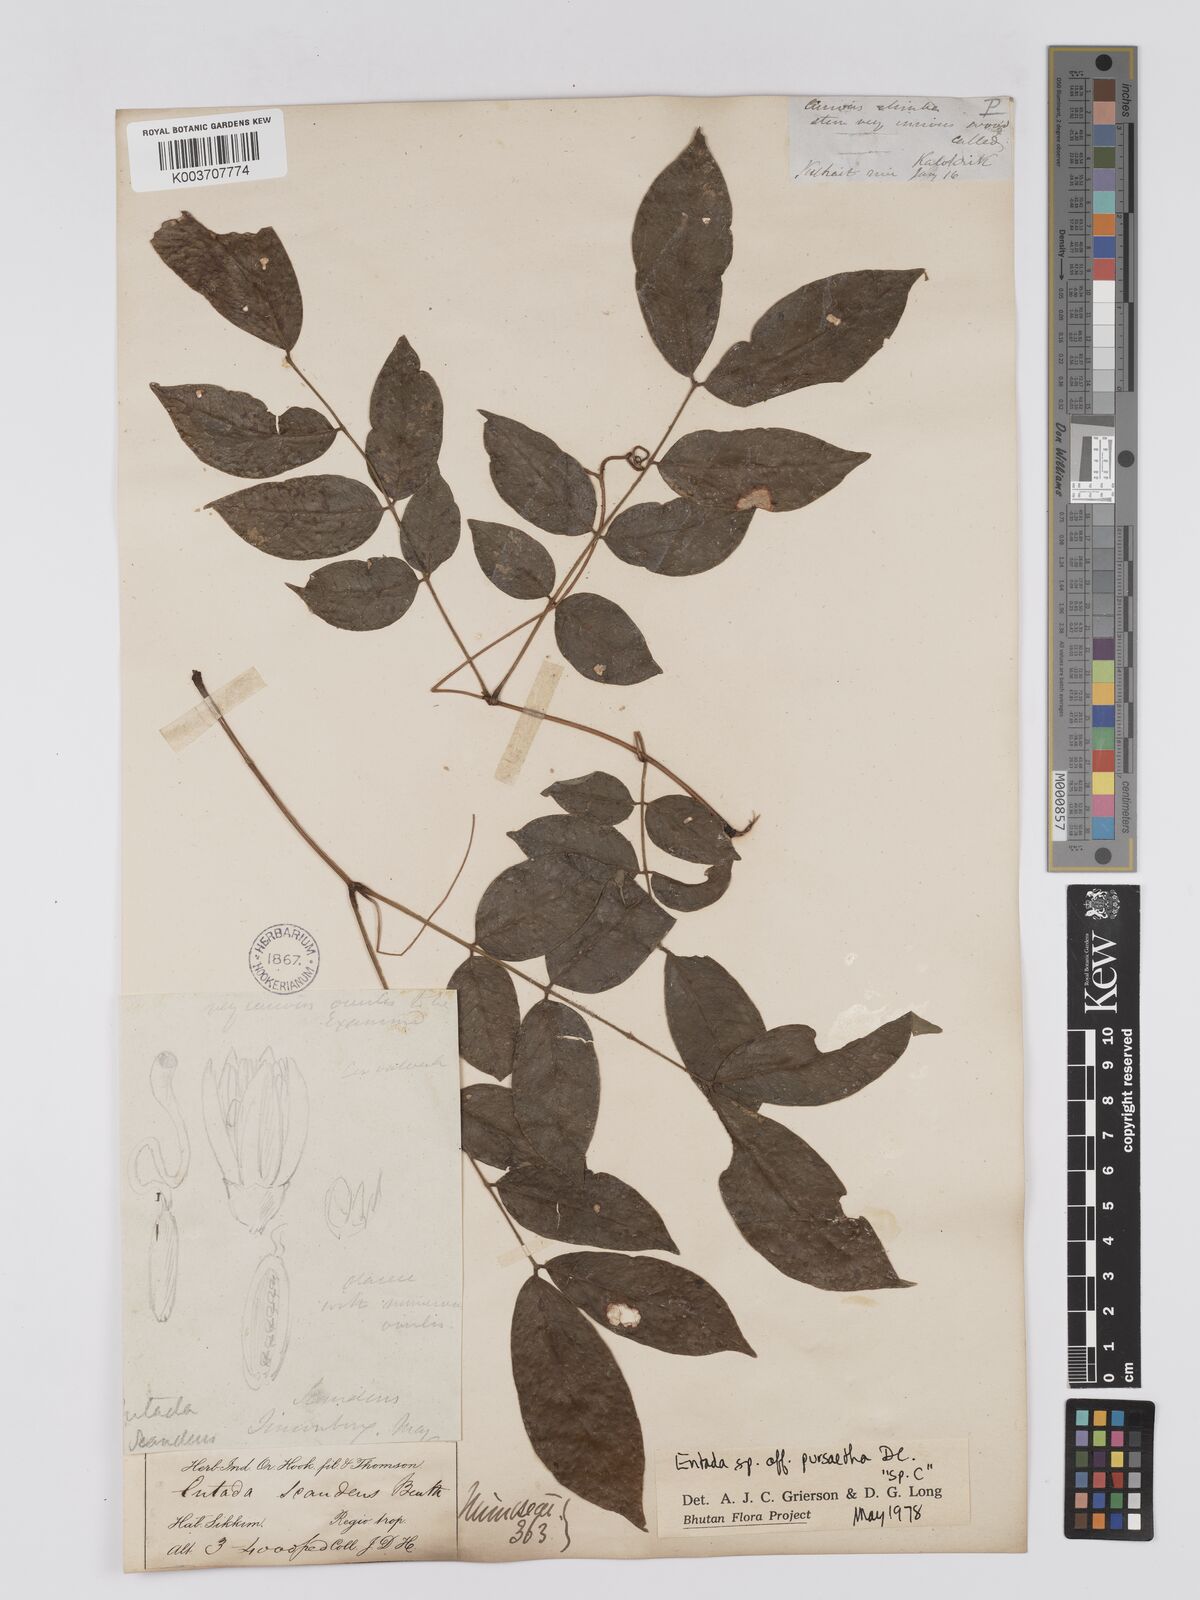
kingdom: Plantae
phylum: Tracheophyta
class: Magnoliopsida
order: Fabales
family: Fabaceae
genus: Entada
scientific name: Entada
